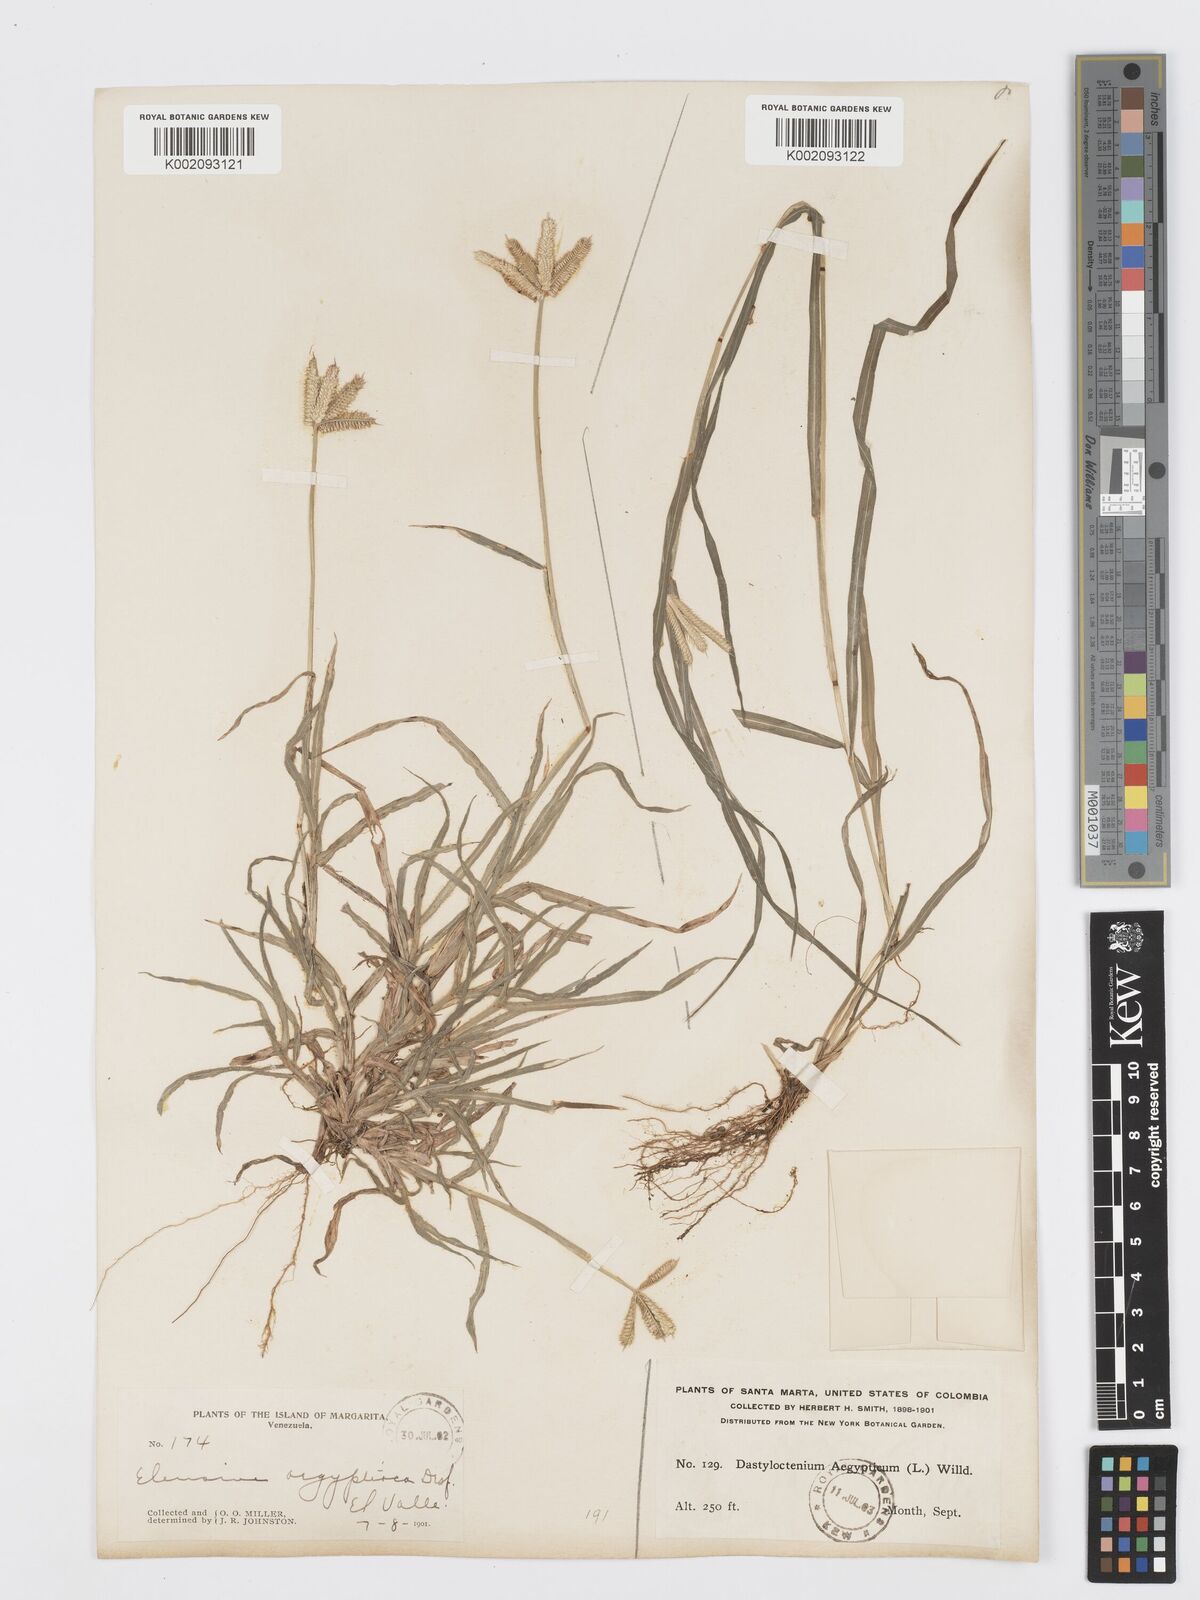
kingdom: Plantae
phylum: Tracheophyta
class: Liliopsida
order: Poales
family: Poaceae
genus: Dactyloctenium
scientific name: Dactyloctenium aegyptium
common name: Egyptian grass
